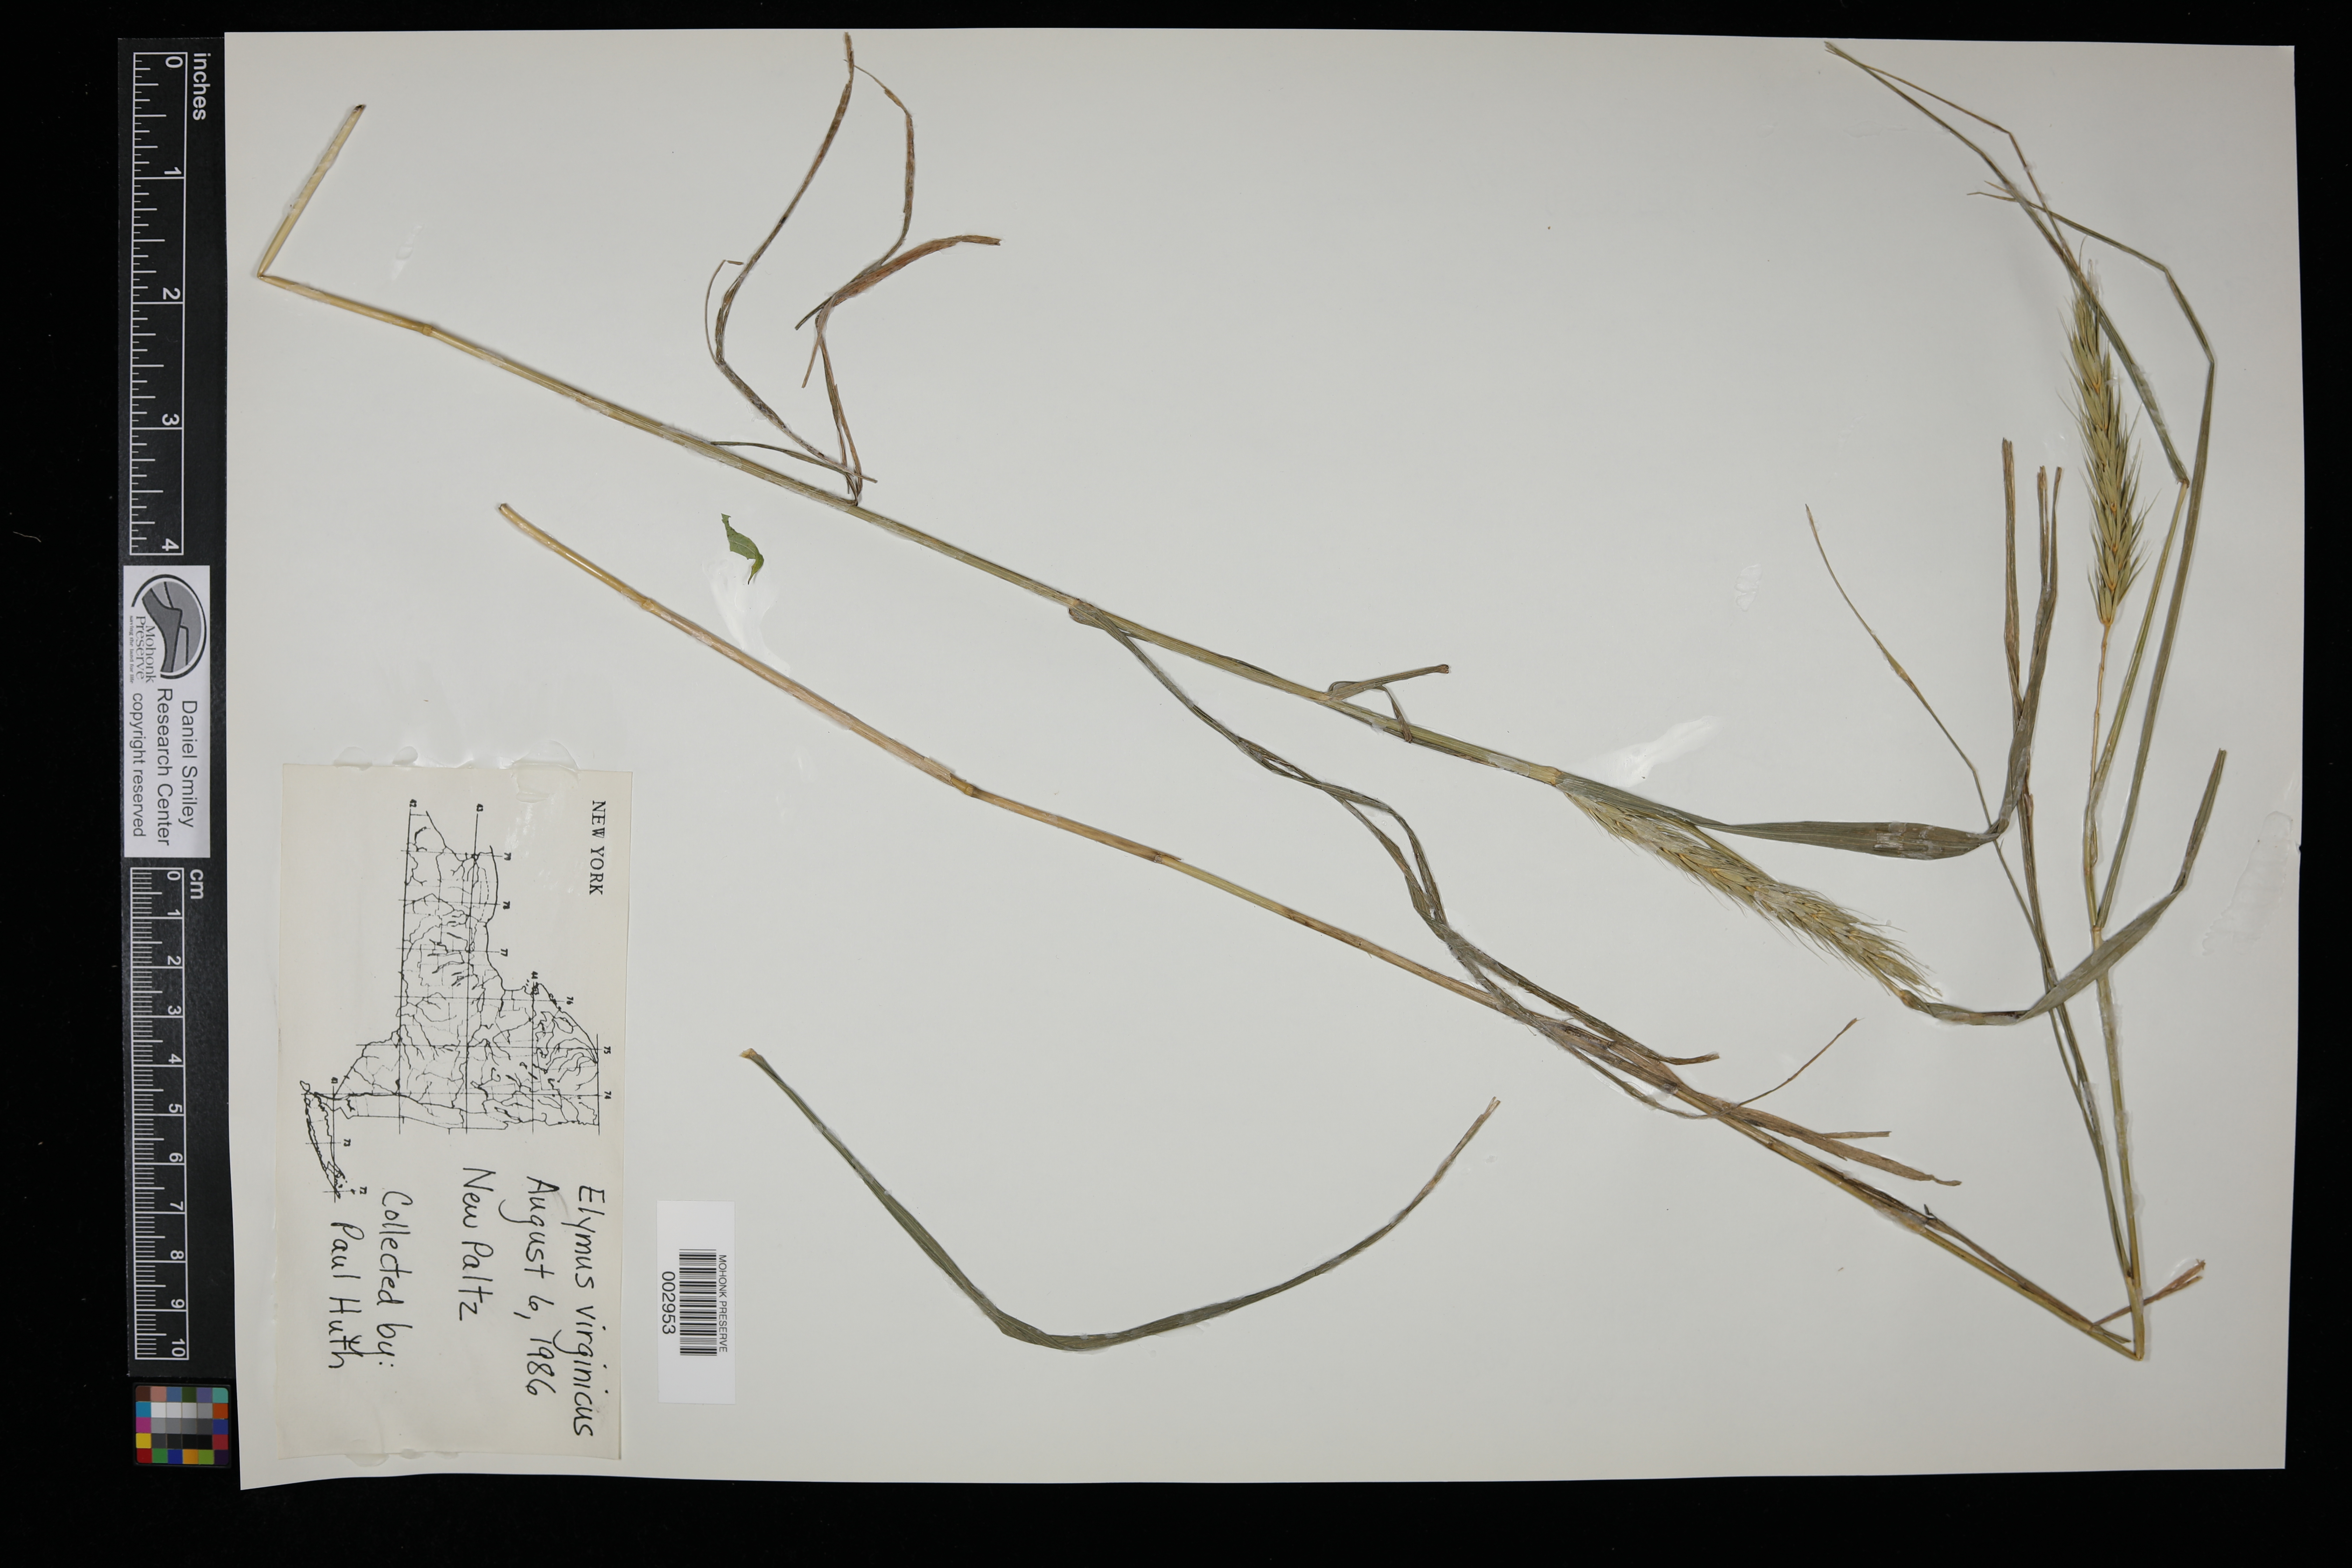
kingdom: Plantae
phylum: Tracheophyta
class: Liliopsida
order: Poales
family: Poaceae
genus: Elymus
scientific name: Elymus virginicus
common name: Common eastern wildrye
